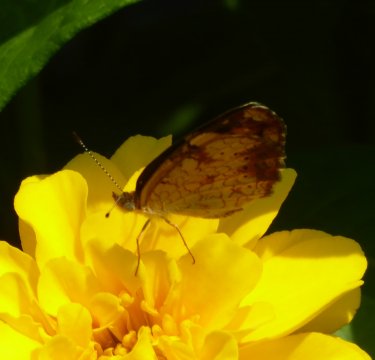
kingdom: Animalia
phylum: Arthropoda
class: Insecta
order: Lepidoptera
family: Nymphalidae
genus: Phyciodes
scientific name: Phyciodes
